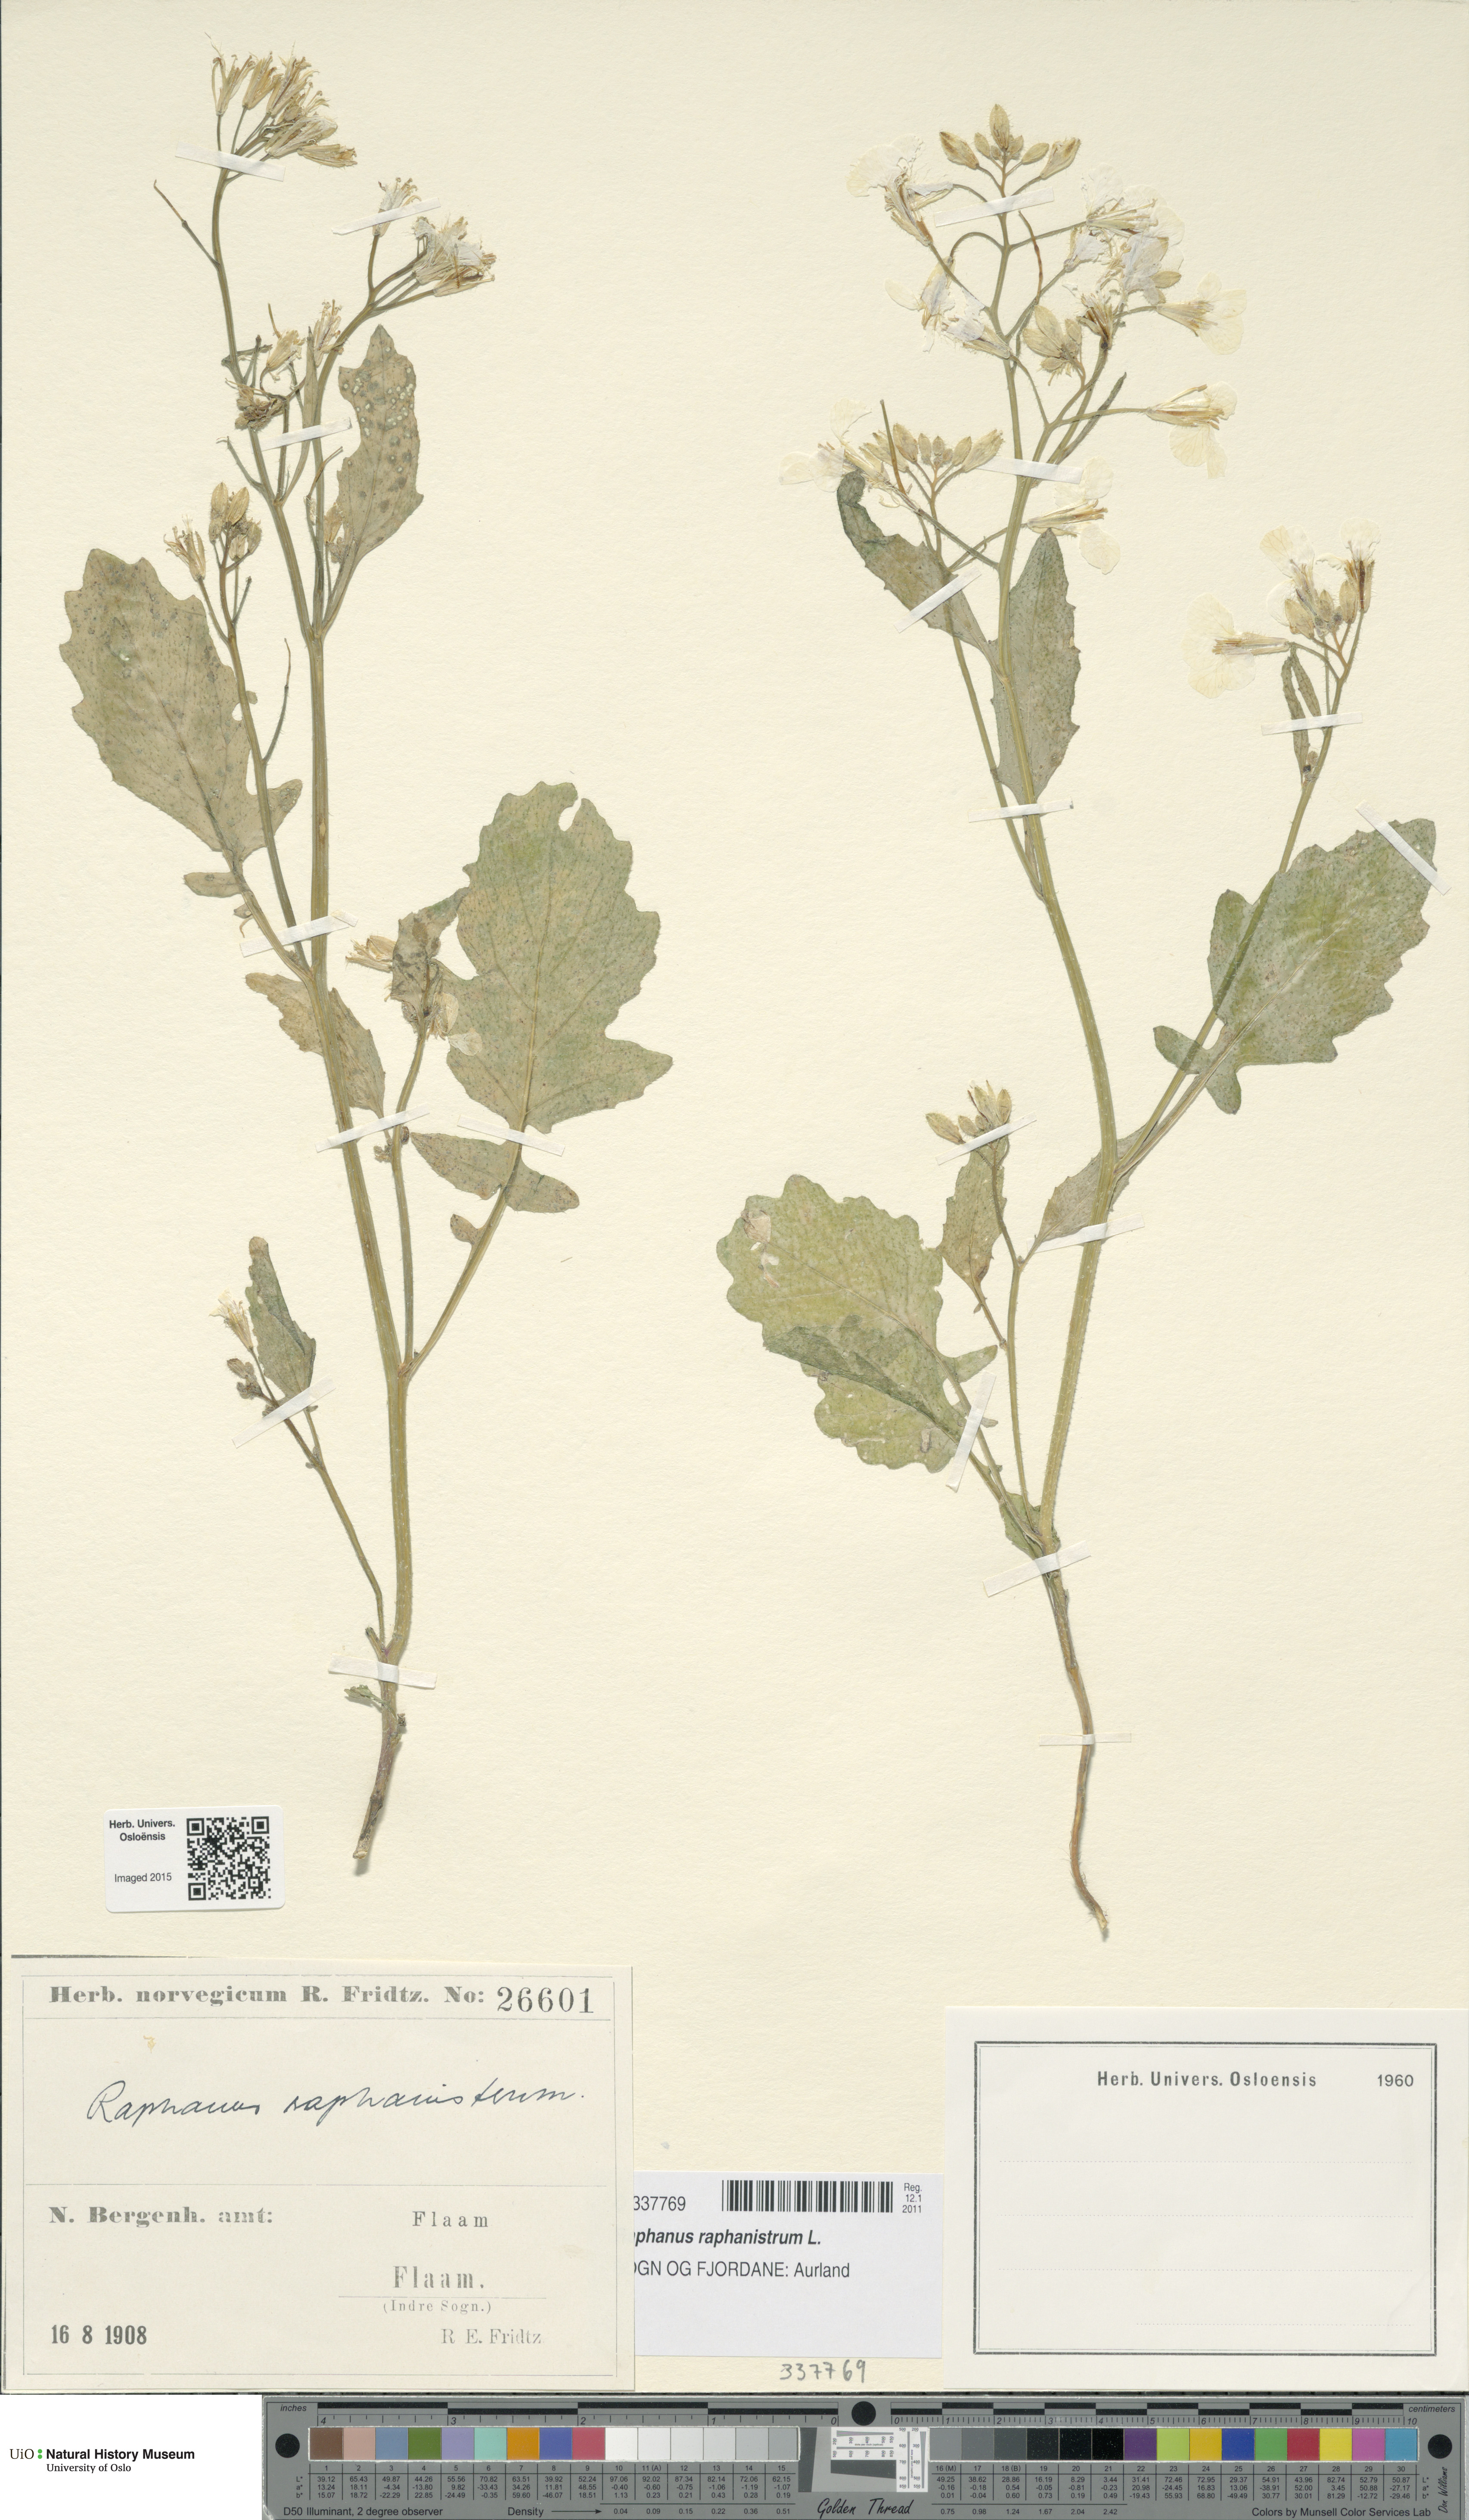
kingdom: Plantae
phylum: Tracheophyta
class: Magnoliopsida
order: Brassicales
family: Brassicaceae
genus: Raphanus
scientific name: Raphanus raphanistrum
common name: Wild radish
